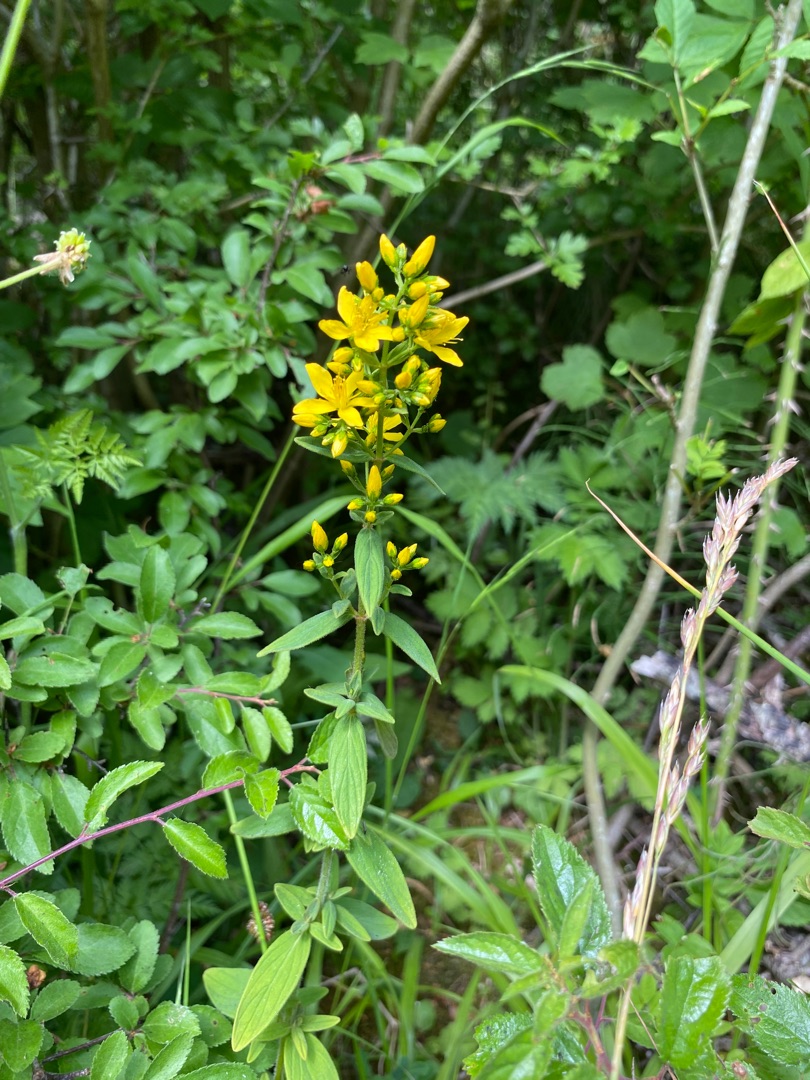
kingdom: Plantae
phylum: Tracheophyta
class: Magnoliopsida
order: Malpighiales
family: Hypericaceae
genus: Hypericum
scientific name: Hypericum hirsutum
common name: Lådden perikon
